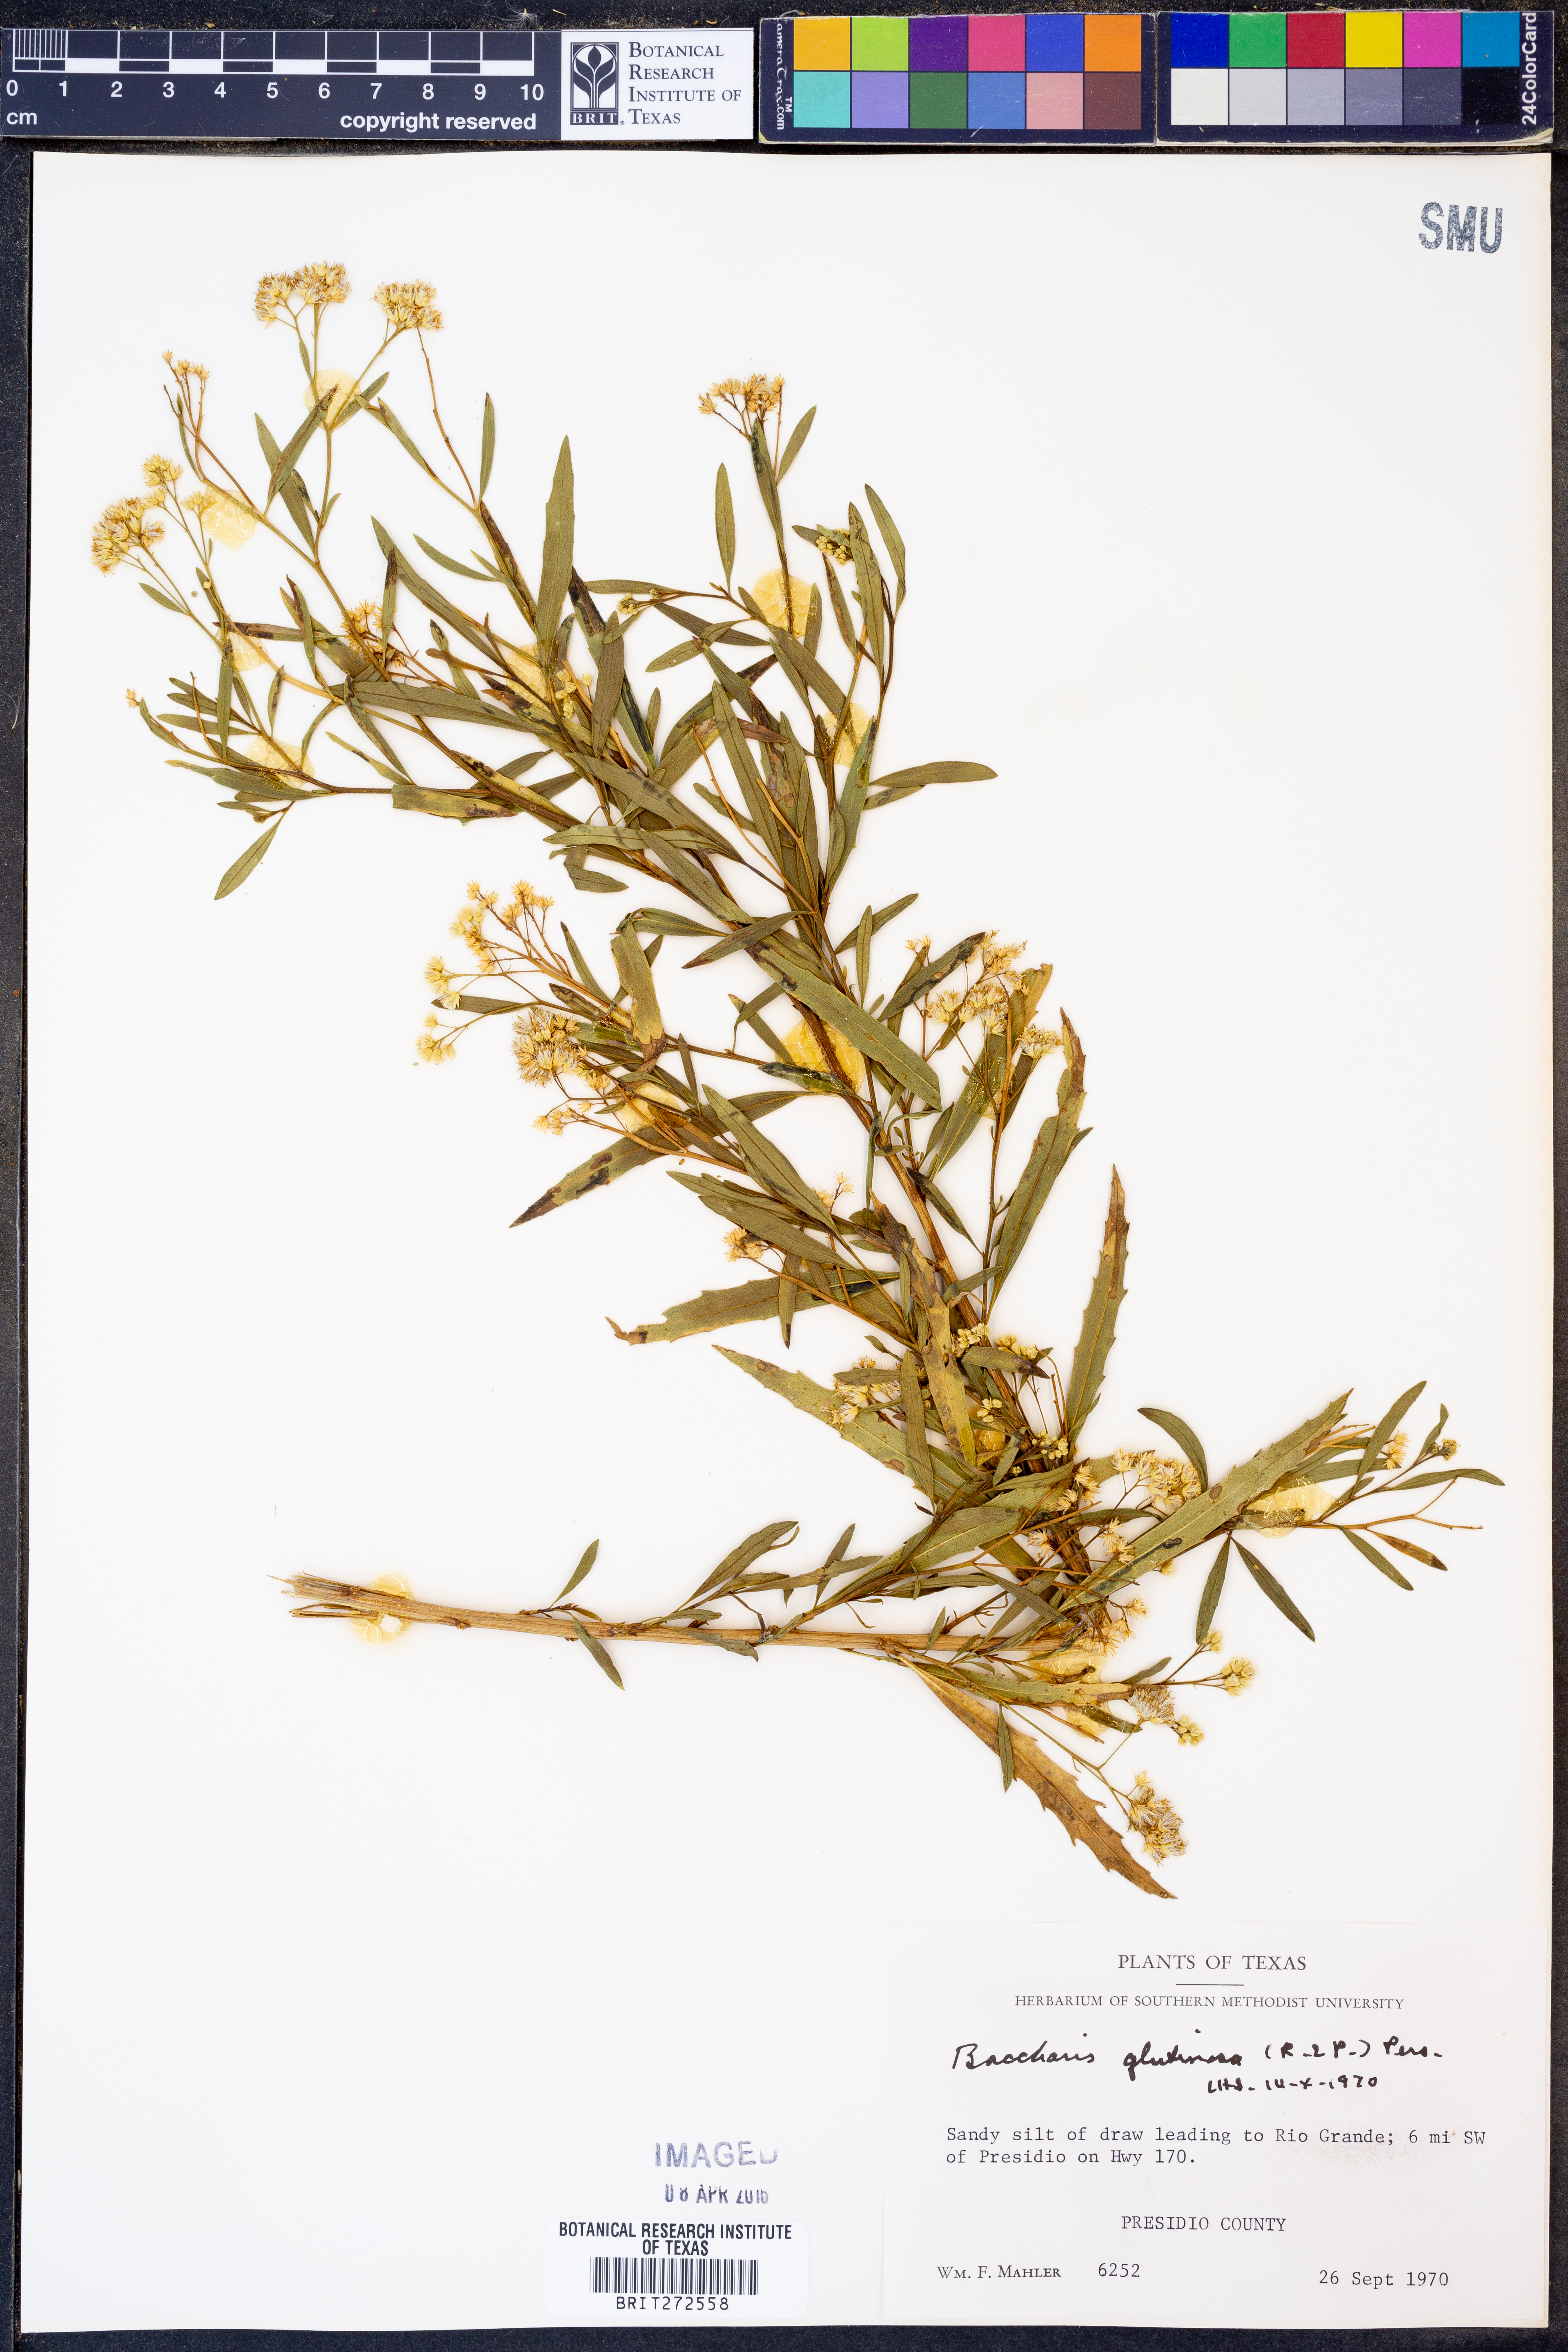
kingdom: Plantae
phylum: Tracheophyta
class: Magnoliopsida
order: Asterales
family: Asteraceae
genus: Baccharis
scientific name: Baccharis glutinosa
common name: Saltmarsh baccharis
